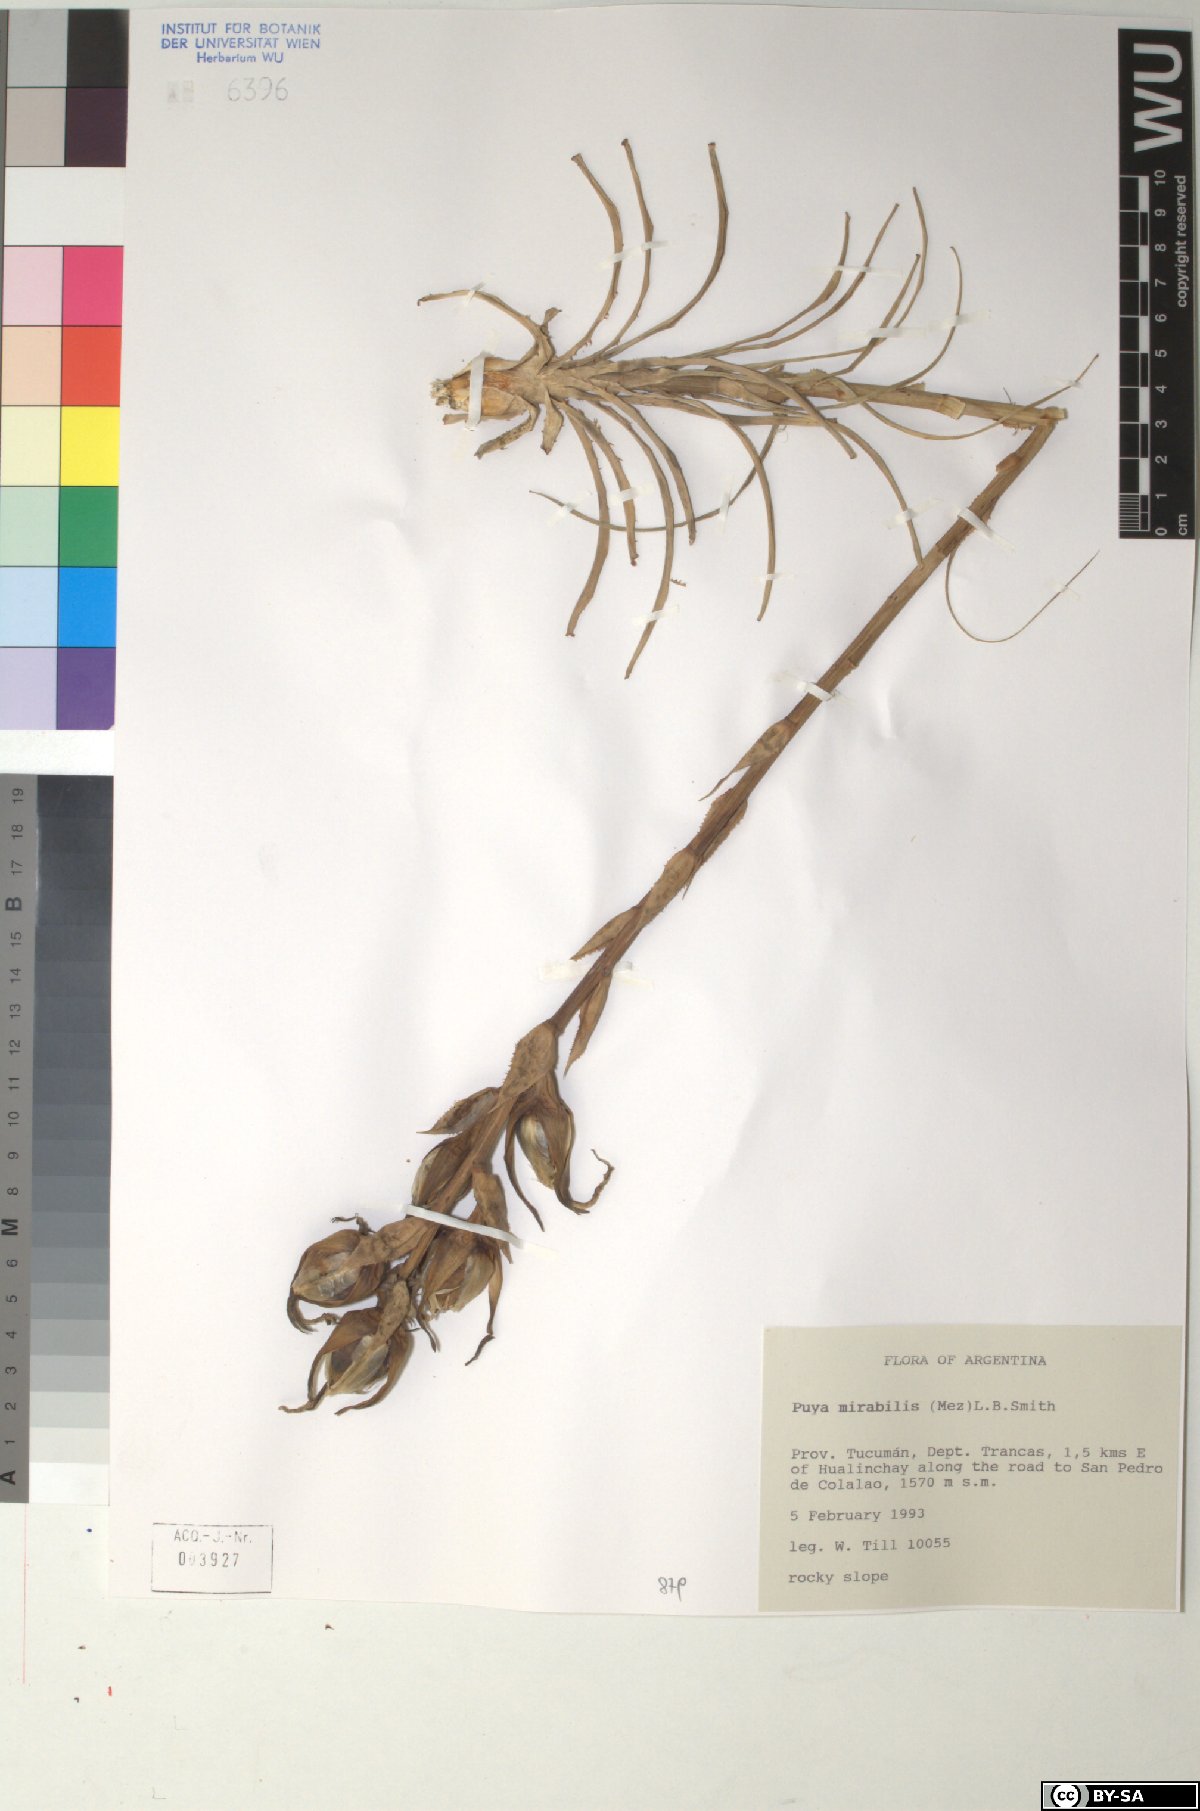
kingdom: Plantae
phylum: Tracheophyta
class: Liliopsida
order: Poales
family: Bromeliaceae
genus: Puya
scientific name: Puya mirabilis
